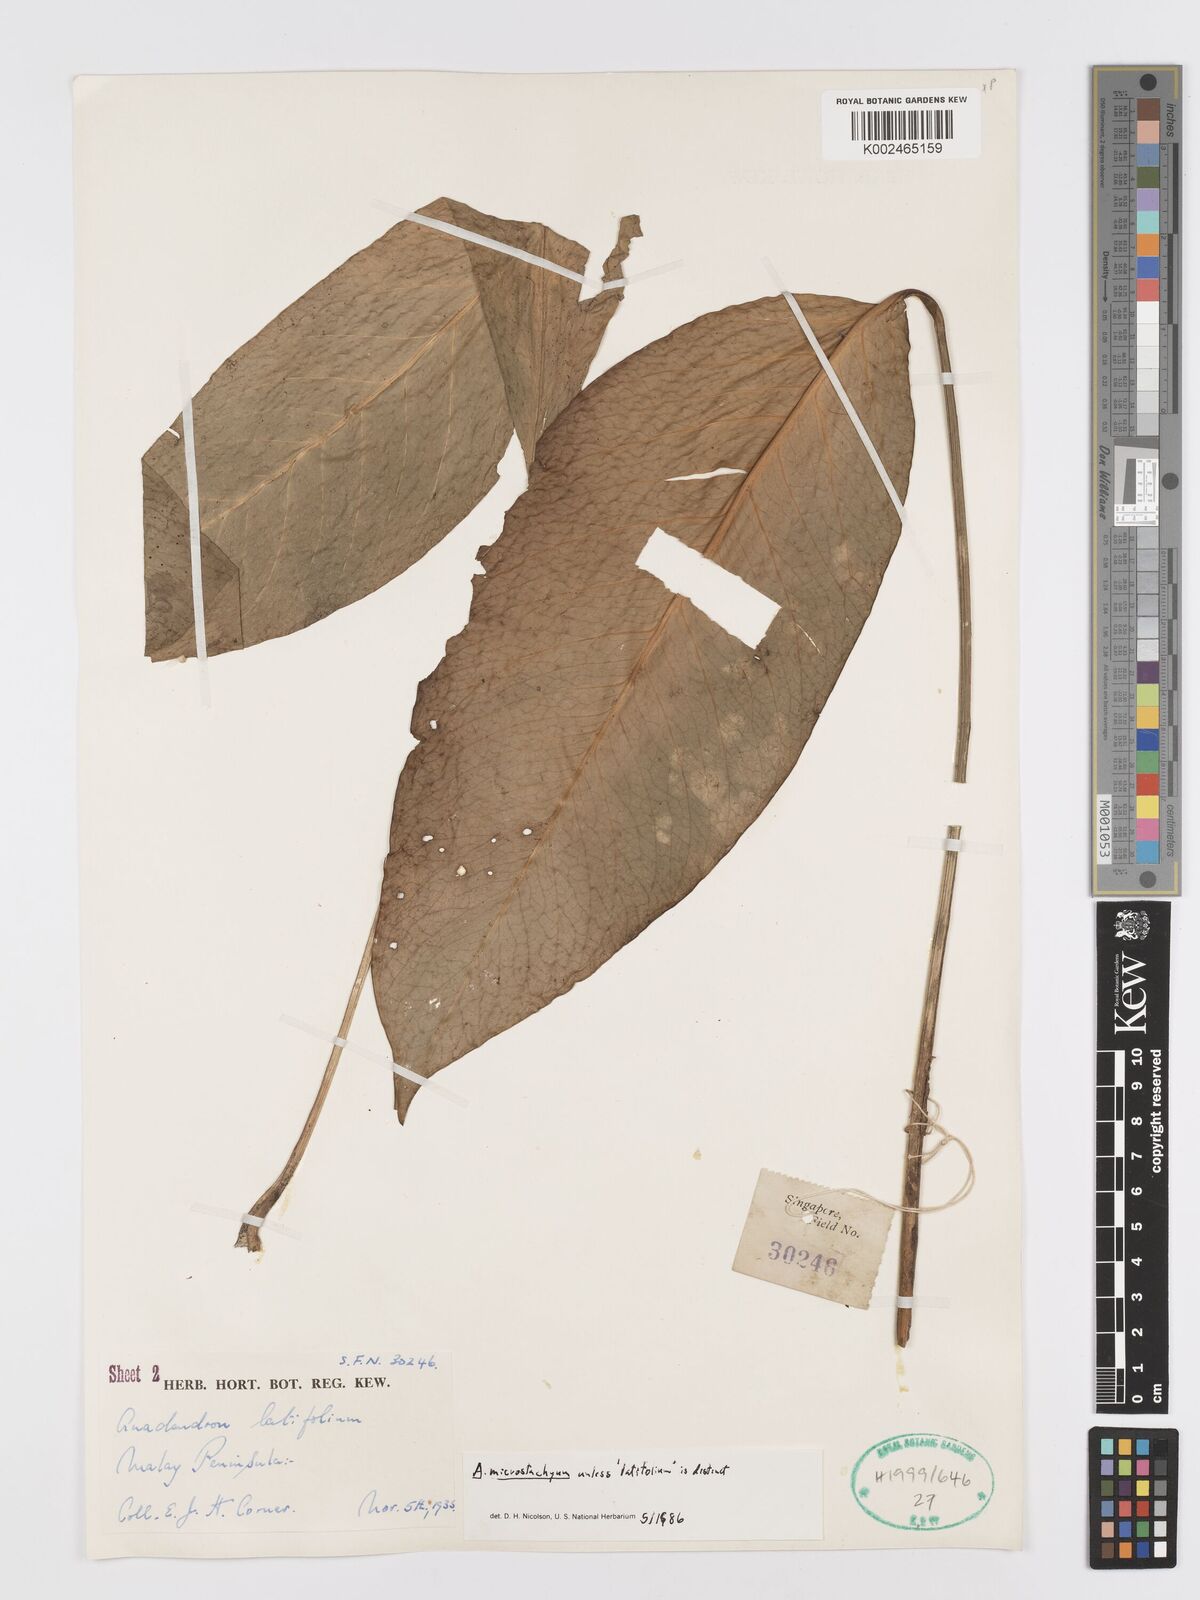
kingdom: Plantae
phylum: Tracheophyta
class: Liliopsida
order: Alismatales
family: Araceae
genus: Anadendrum
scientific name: Anadendrum microstachyum
